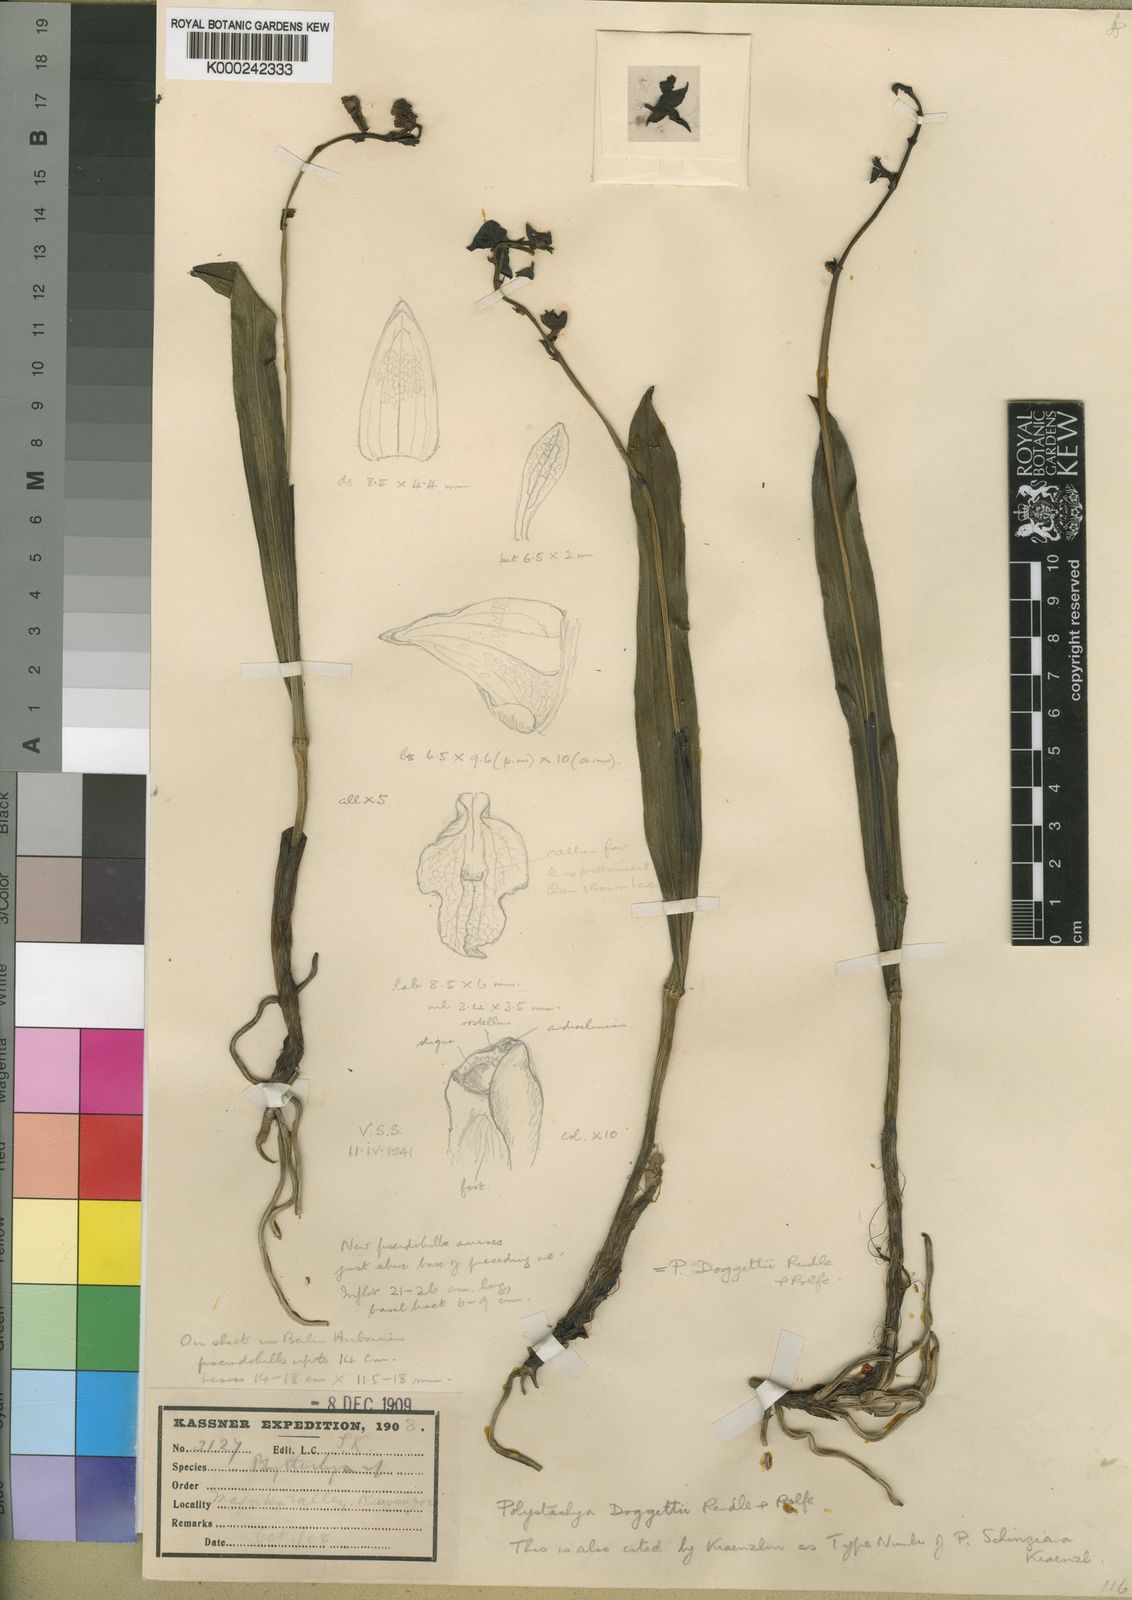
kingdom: Plantae
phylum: Tracheophyta
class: Liliopsida
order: Asparagales
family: Orchidaceae
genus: Polystachya
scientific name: Polystachya doggettii
